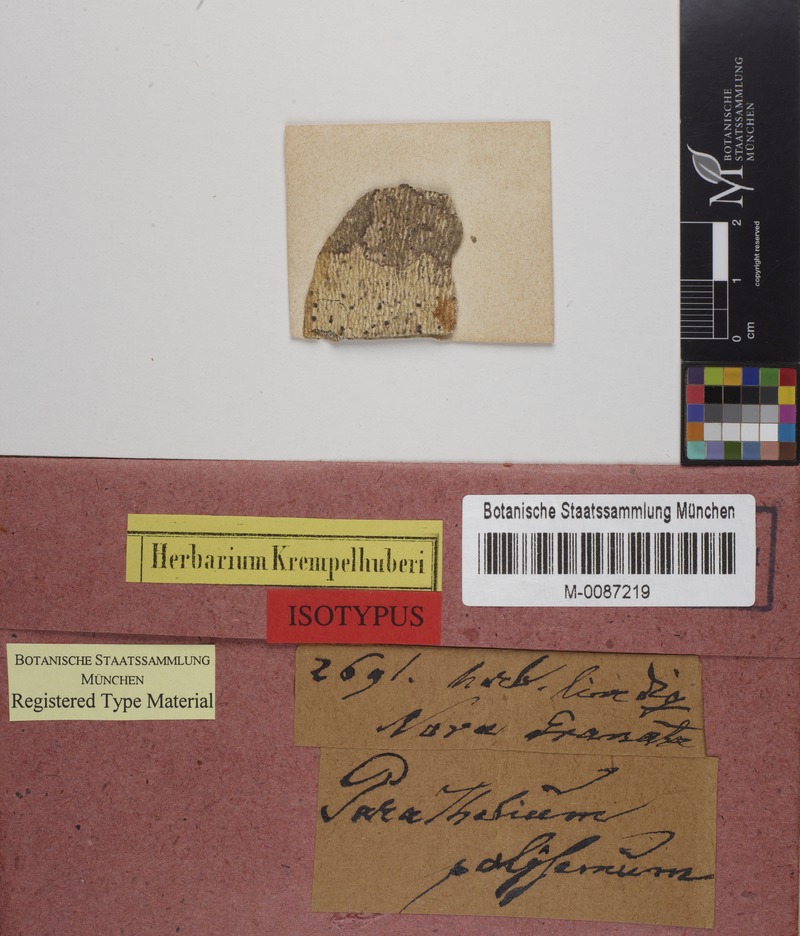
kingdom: Fungi
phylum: Ascomycota
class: Eurotiomycetes
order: Pyrenulales
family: Pyrenulaceae
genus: Lithothelium
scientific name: Lithothelium polysemum
